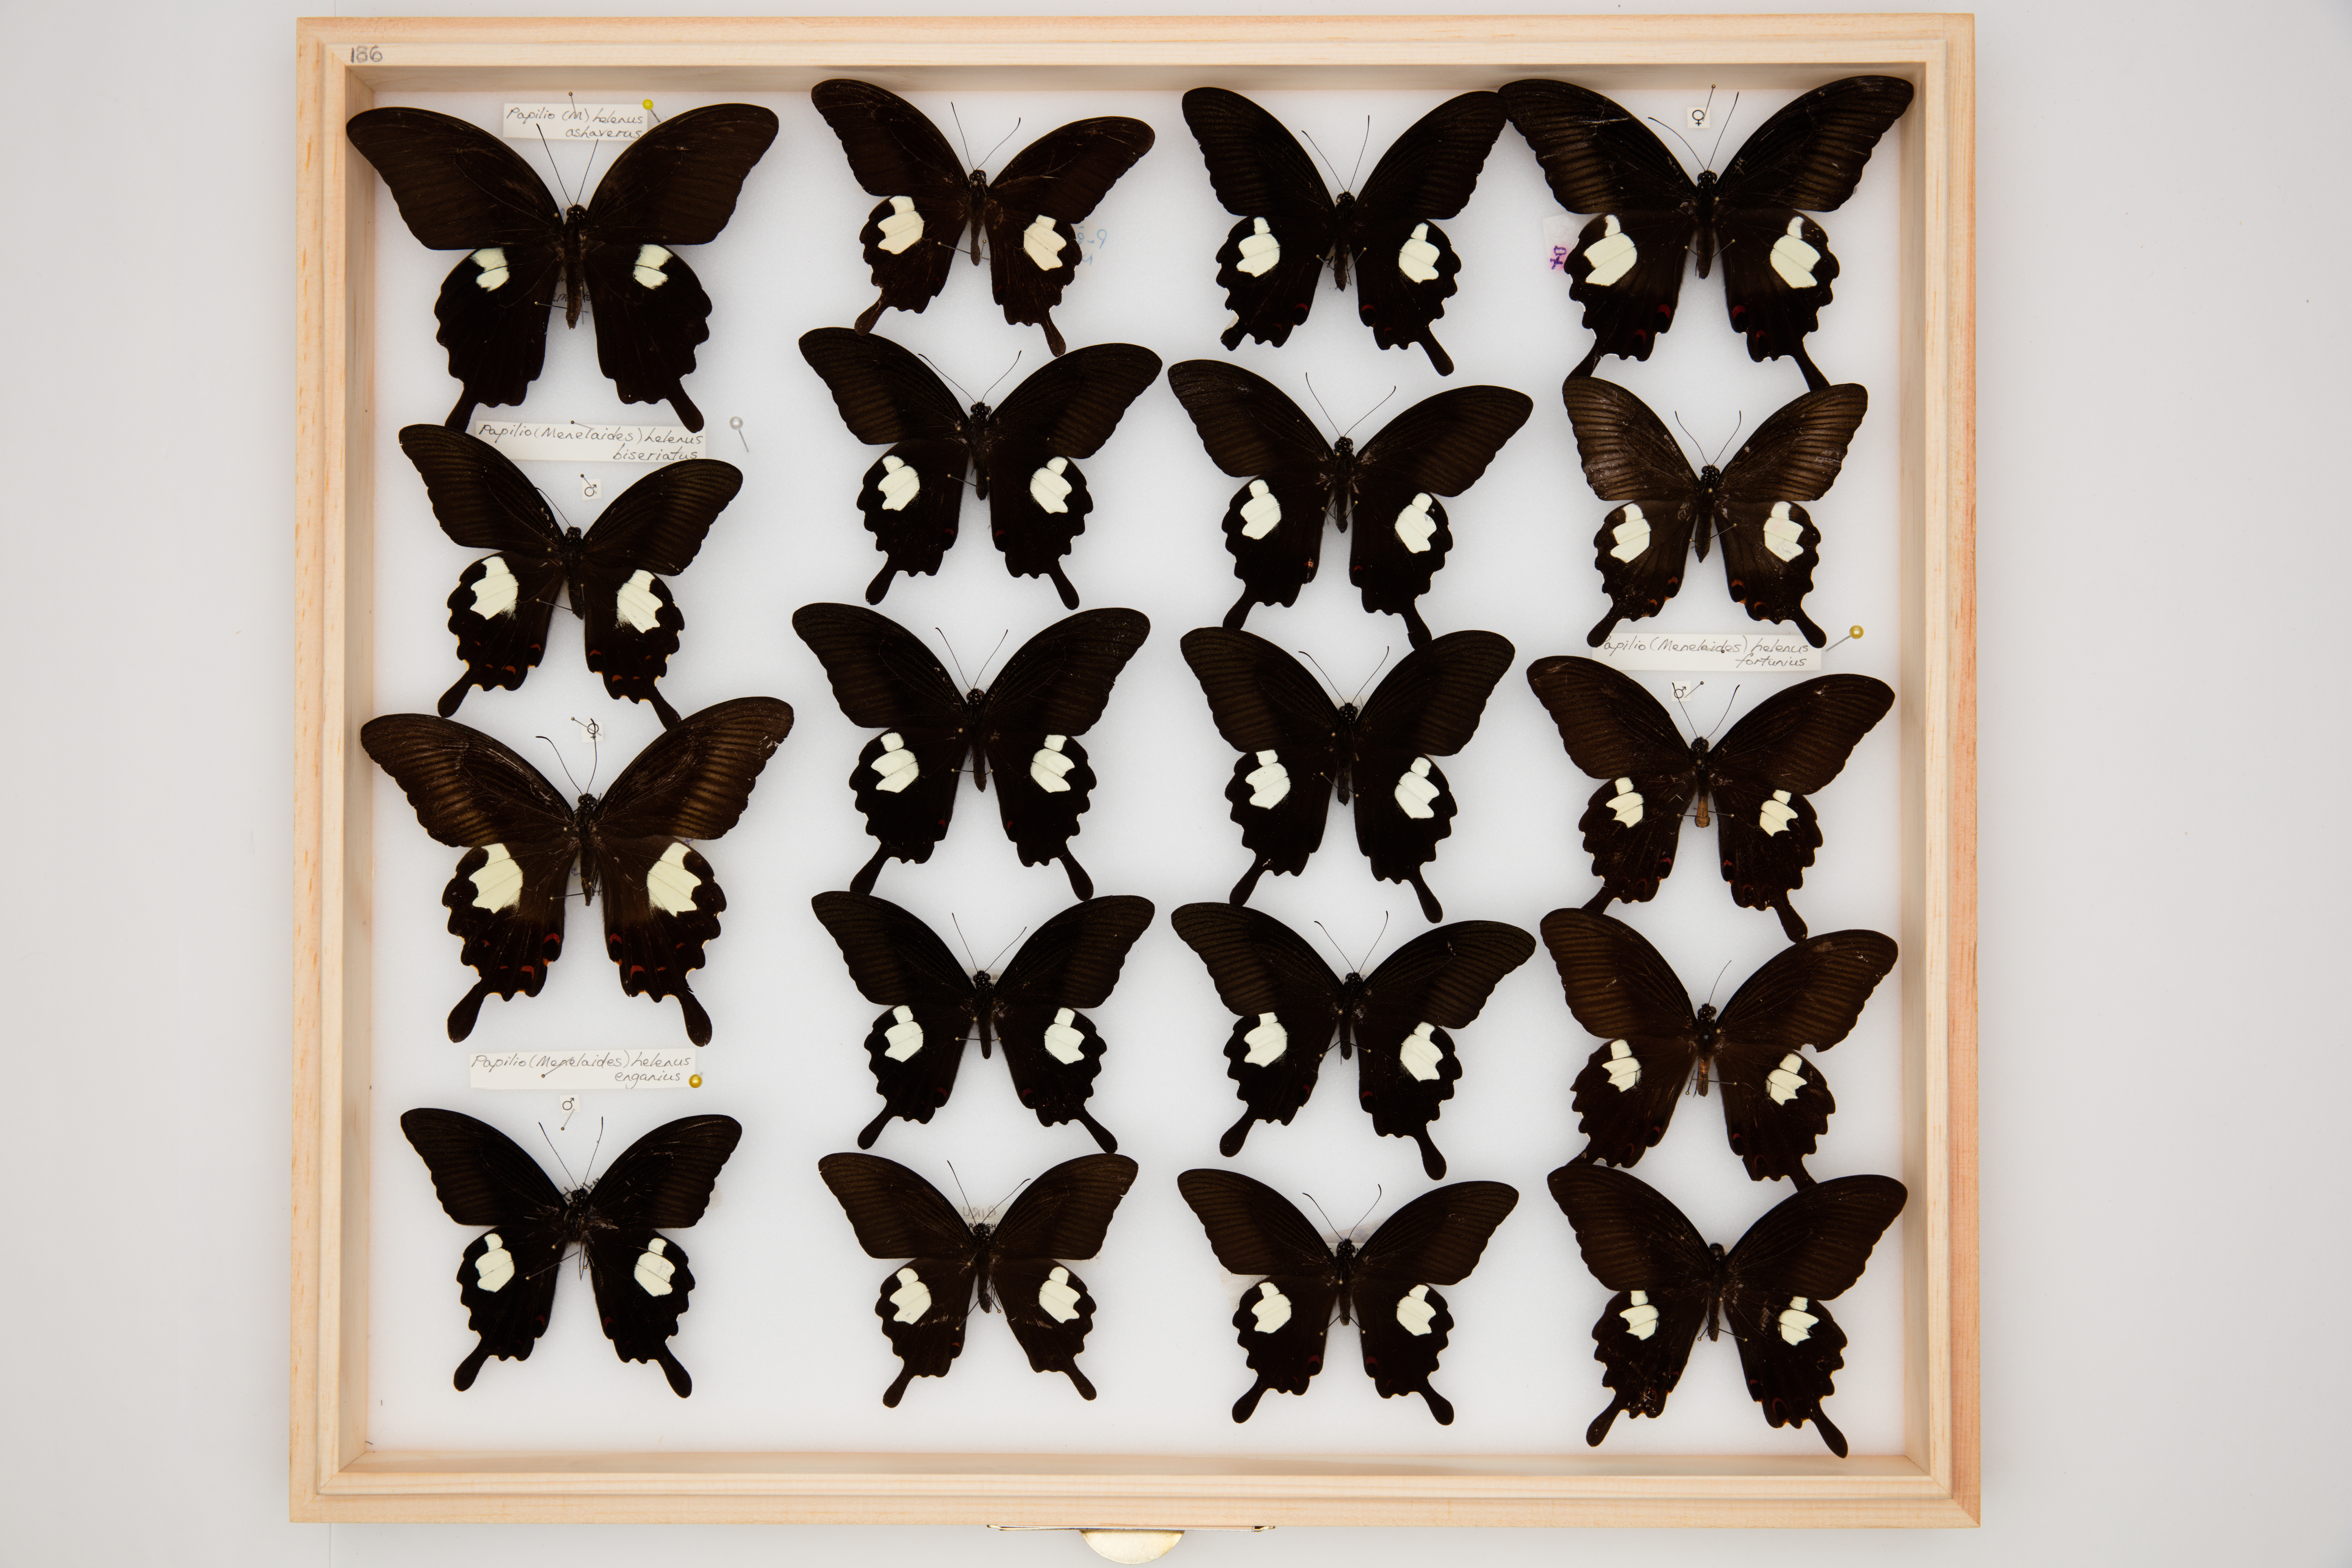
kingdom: Animalia
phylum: Arthropoda
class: Insecta
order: Lepidoptera
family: Papilionidae
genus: Papilio
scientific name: Papilio helenus
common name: Red helen
